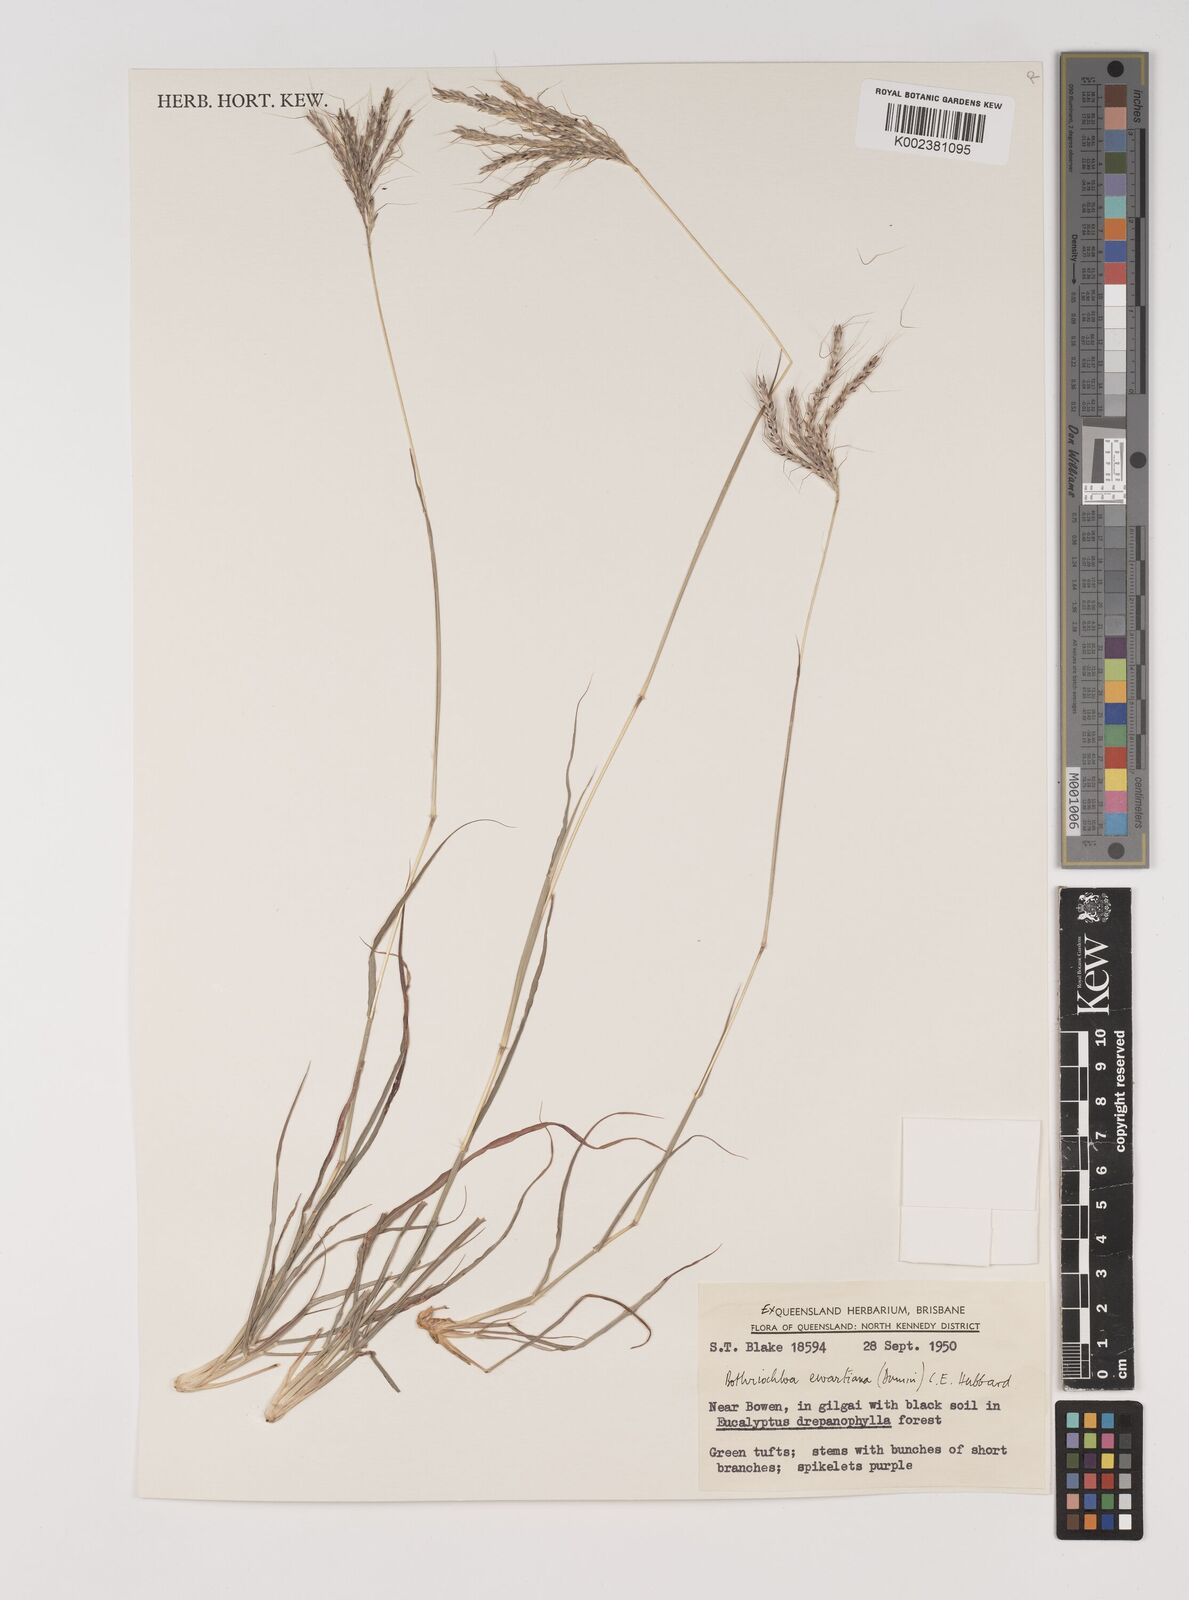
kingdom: Plantae
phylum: Tracheophyta
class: Liliopsida
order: Poales
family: Poaceae
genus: Bothriochloa
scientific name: Bothriochloa ewartiana
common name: Desert-bluegrass
